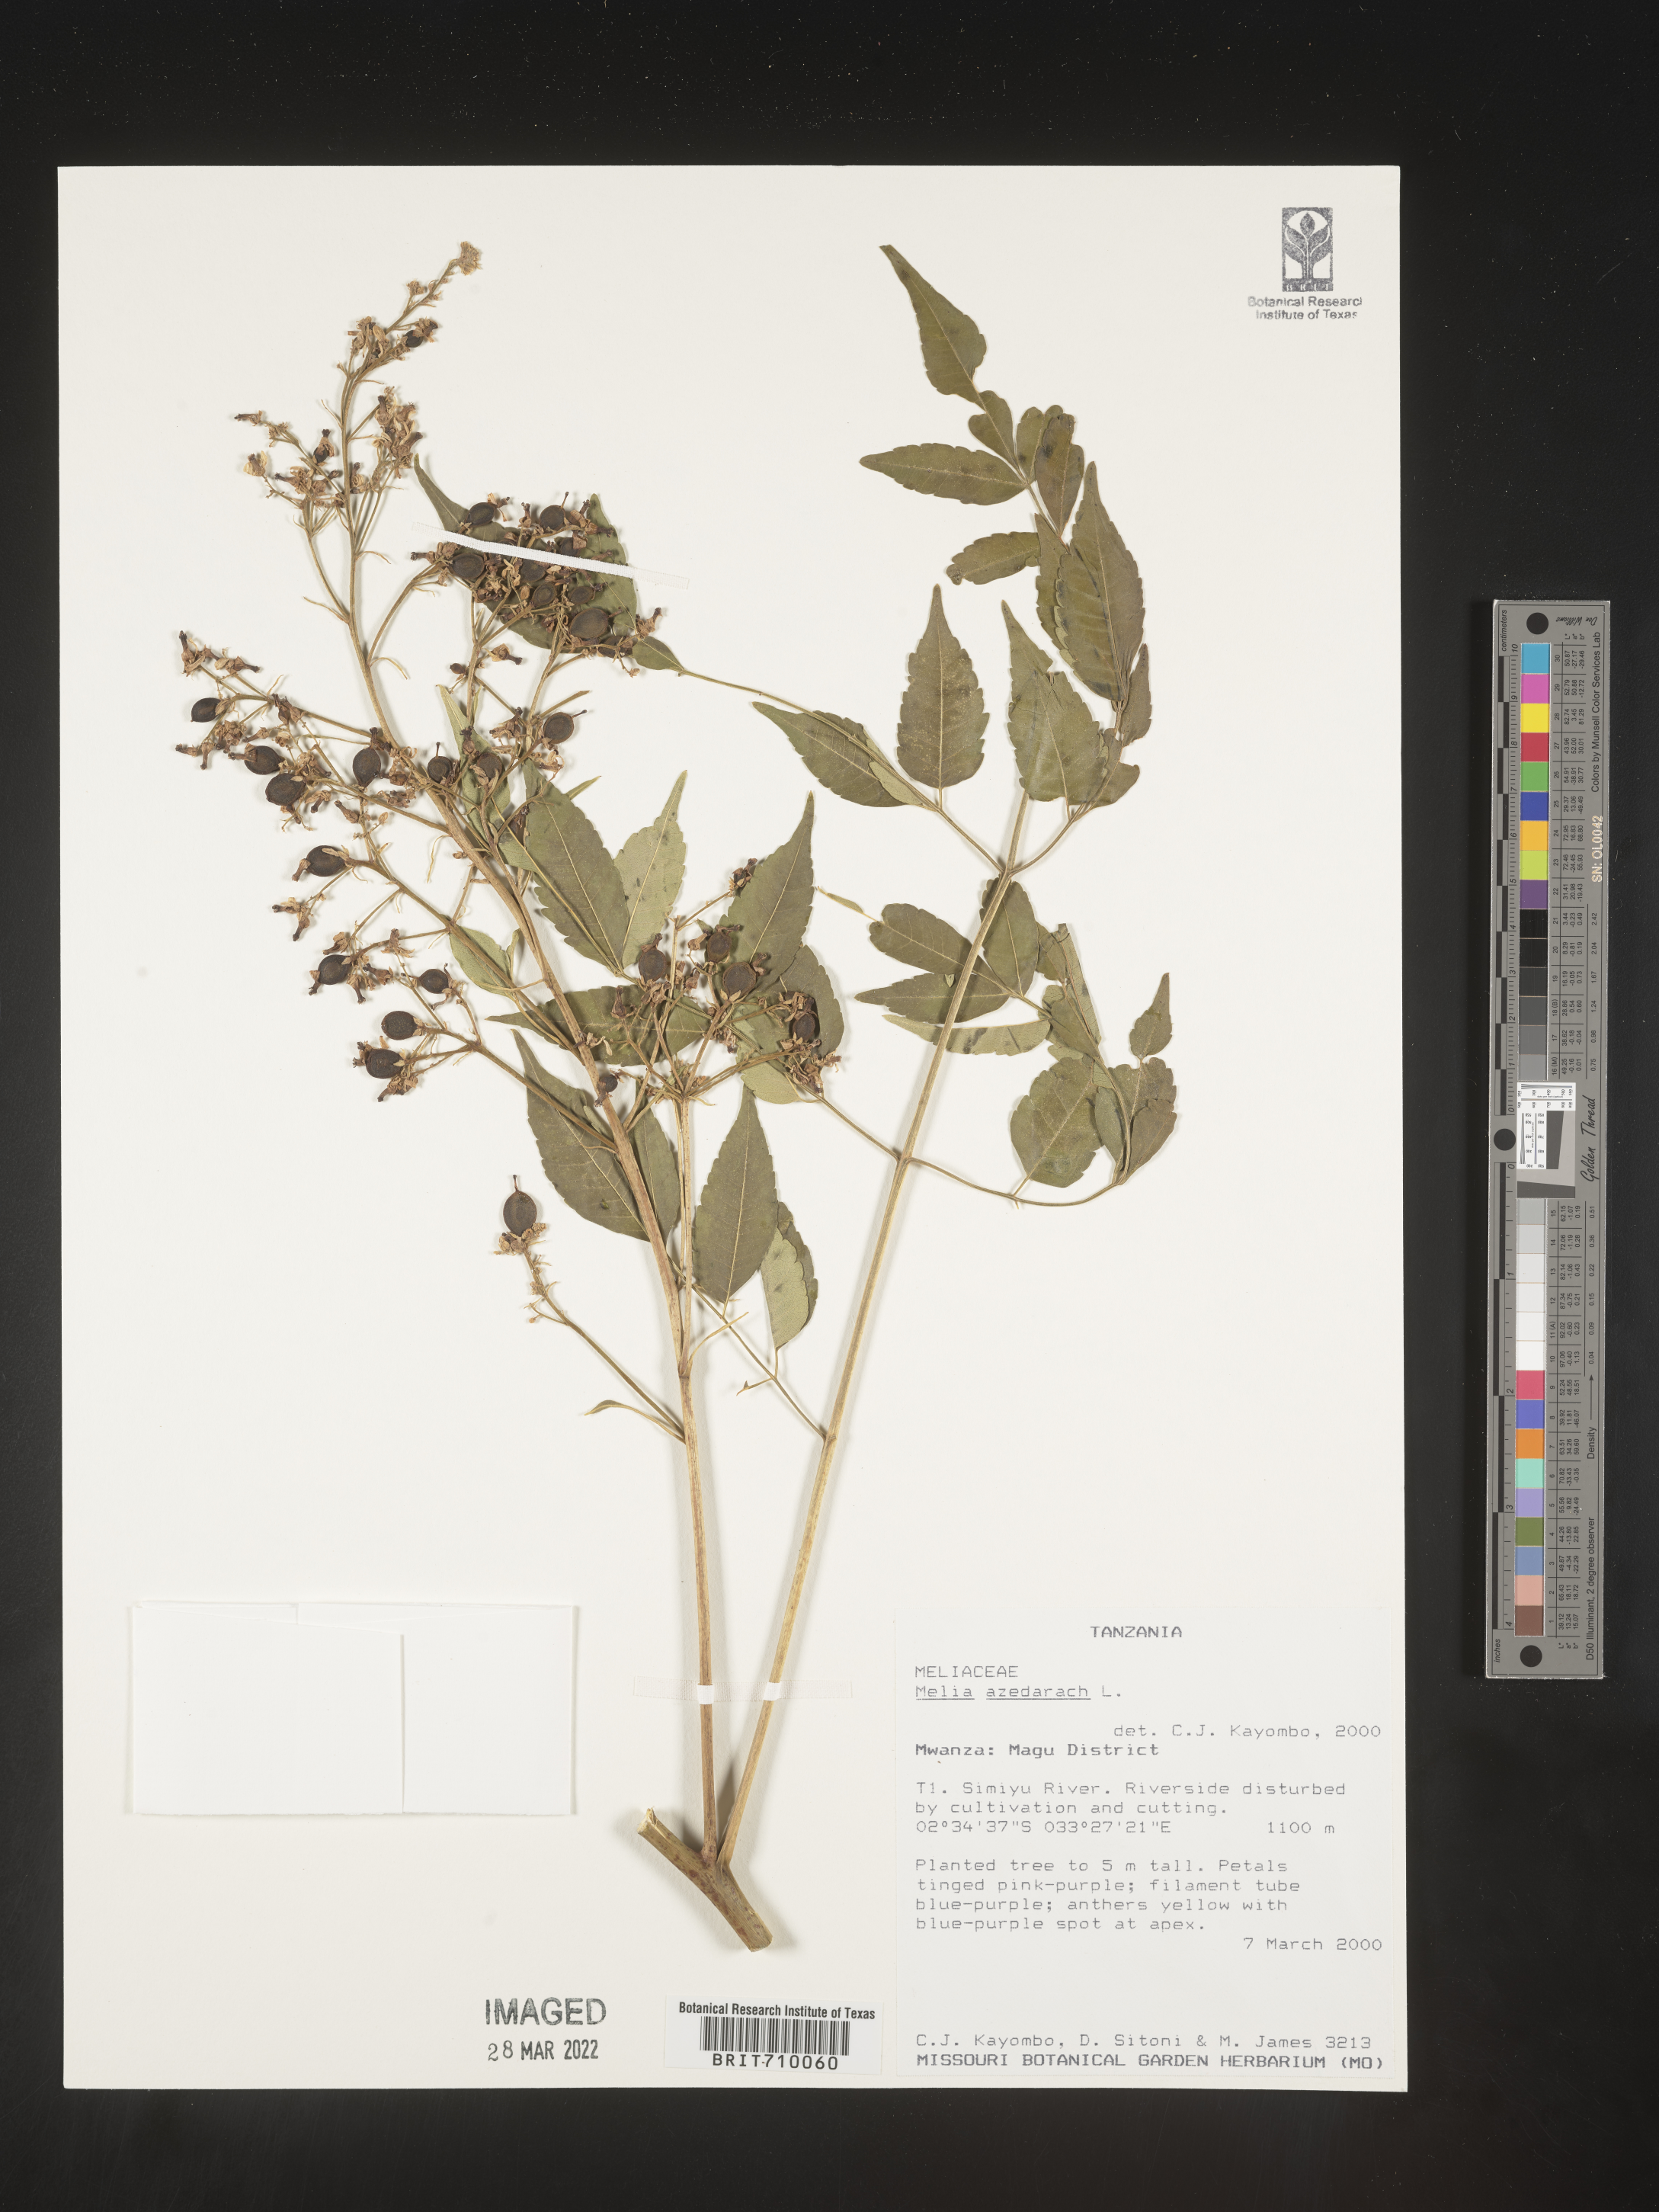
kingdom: Plantae
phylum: Tracheophyta
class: Magnoliopsida
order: Sapindales
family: Meliaceae
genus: Melia
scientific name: Melia
